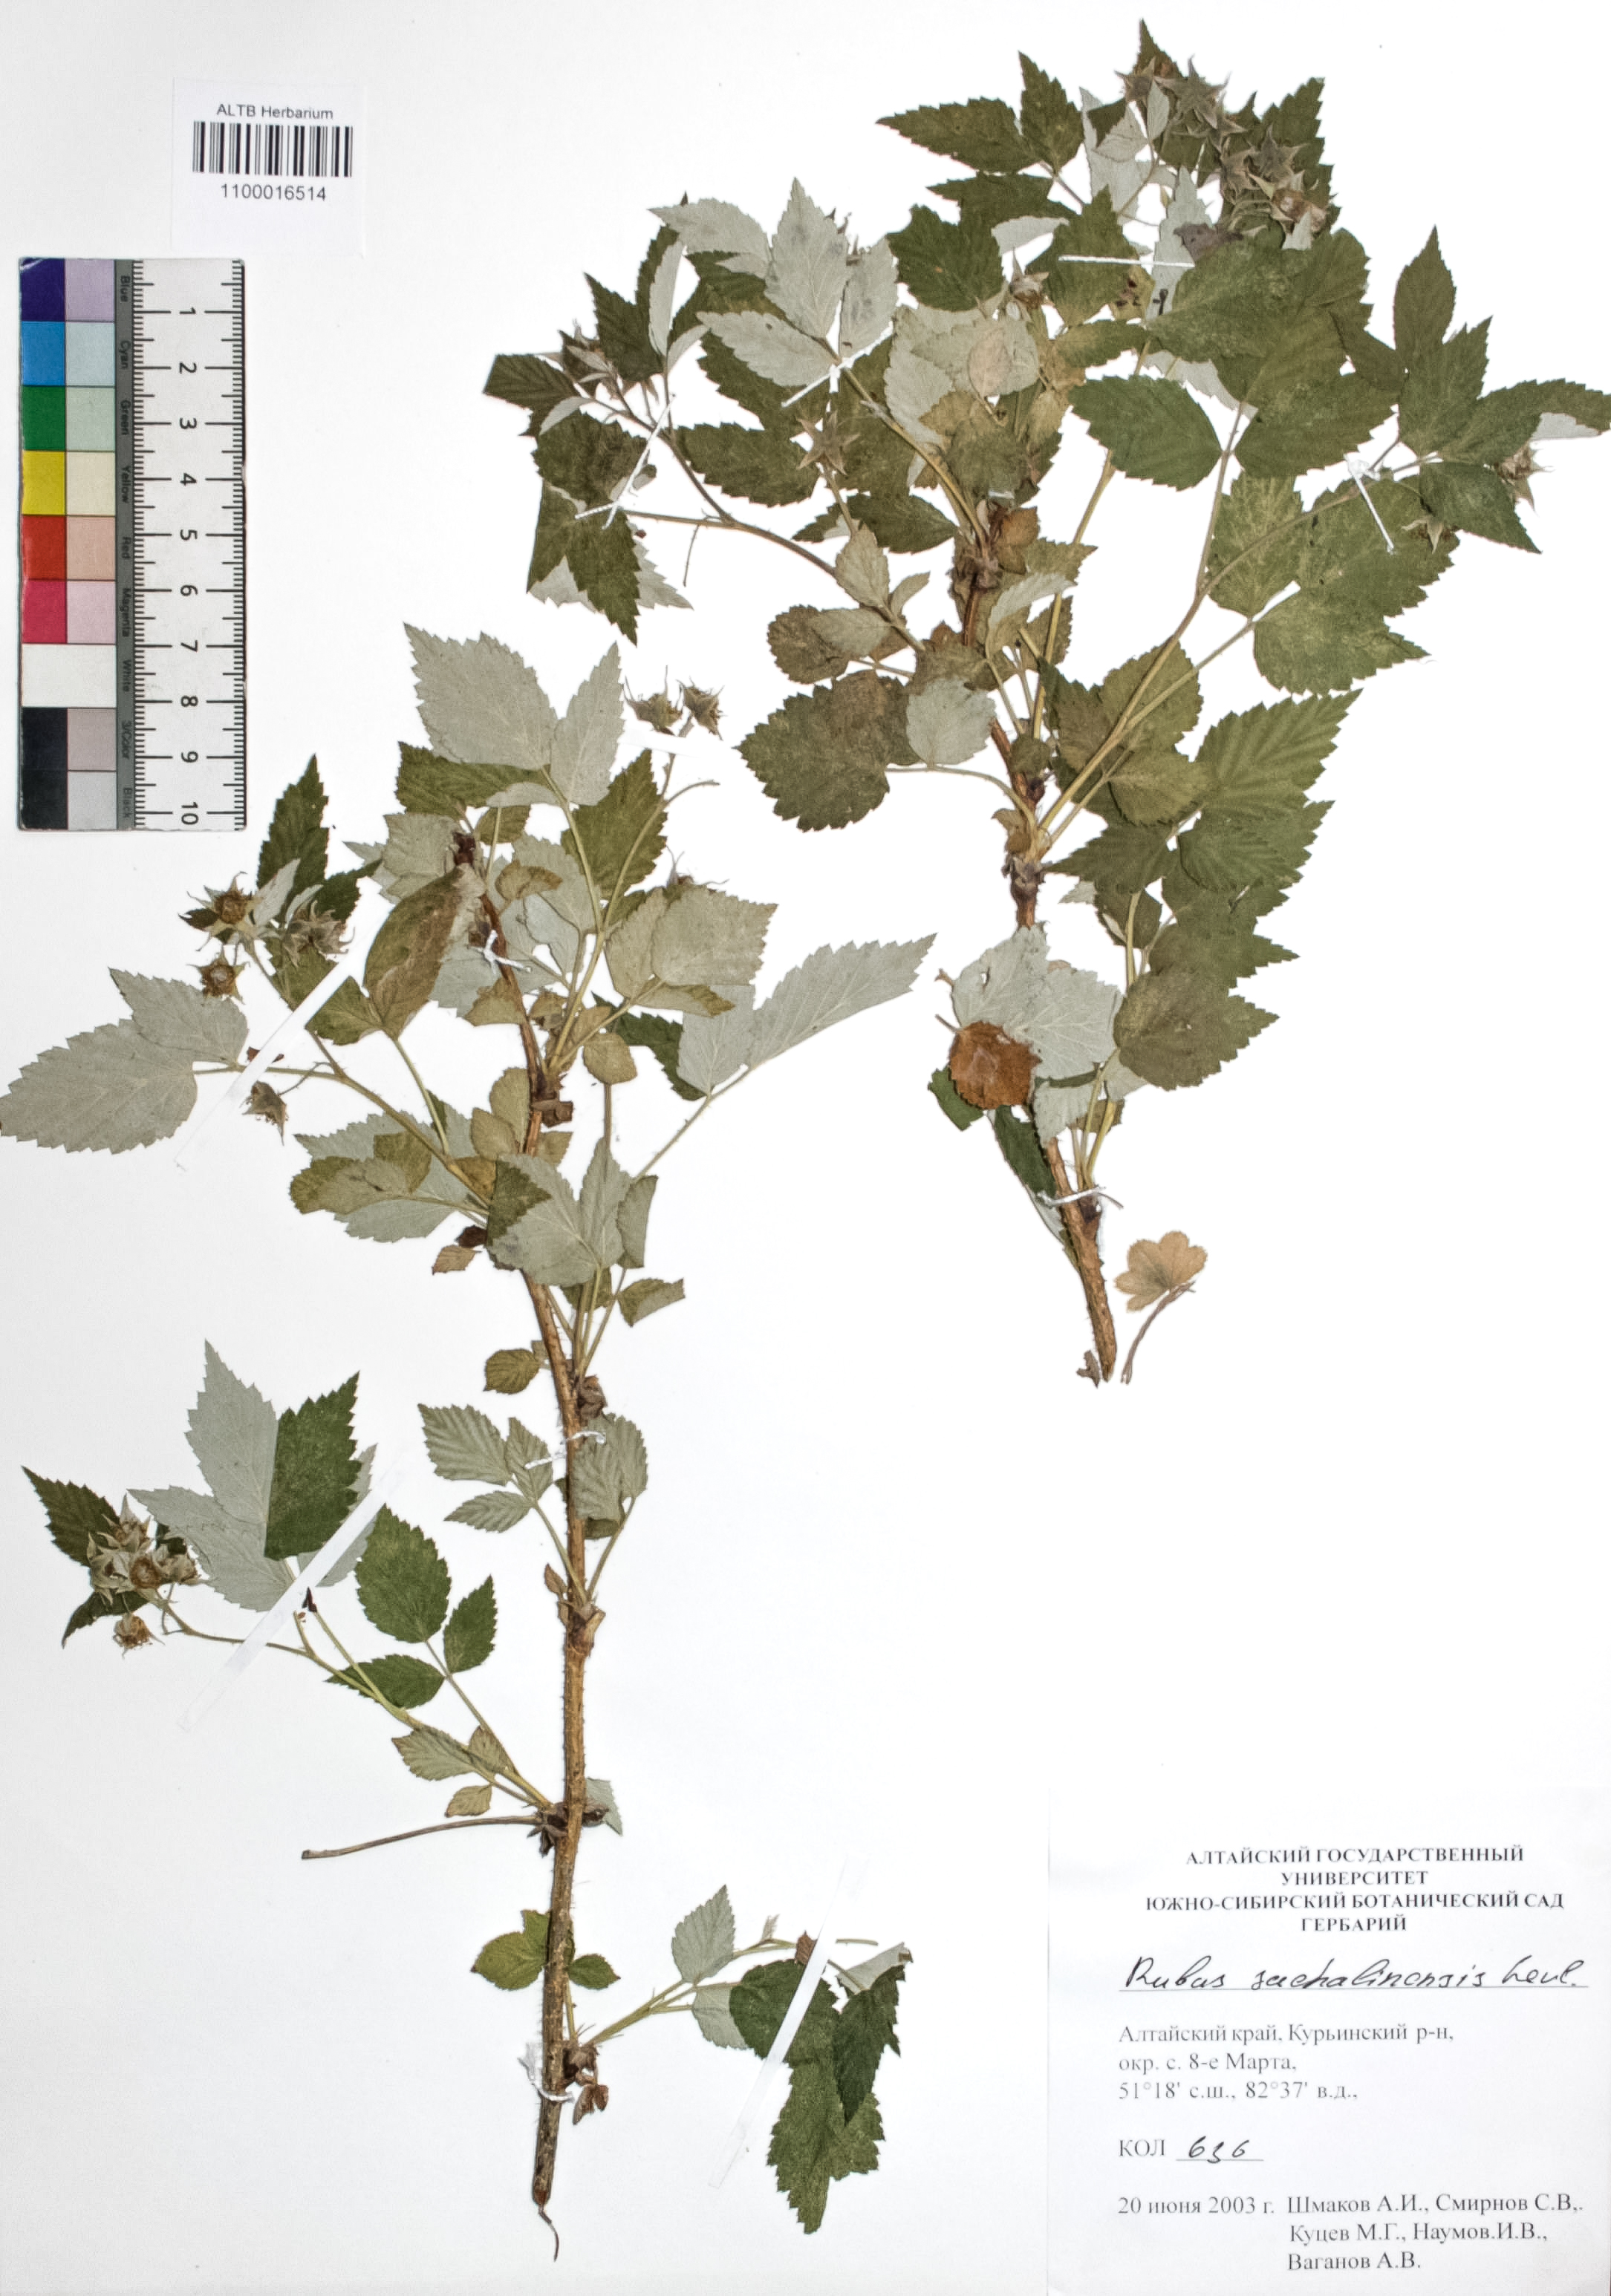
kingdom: Plantae
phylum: Tracheophyta
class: Magnoliopsida
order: Rosales
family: Rosaceae
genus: Rubus
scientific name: Rubus sachalinensis
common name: Red raspberry
